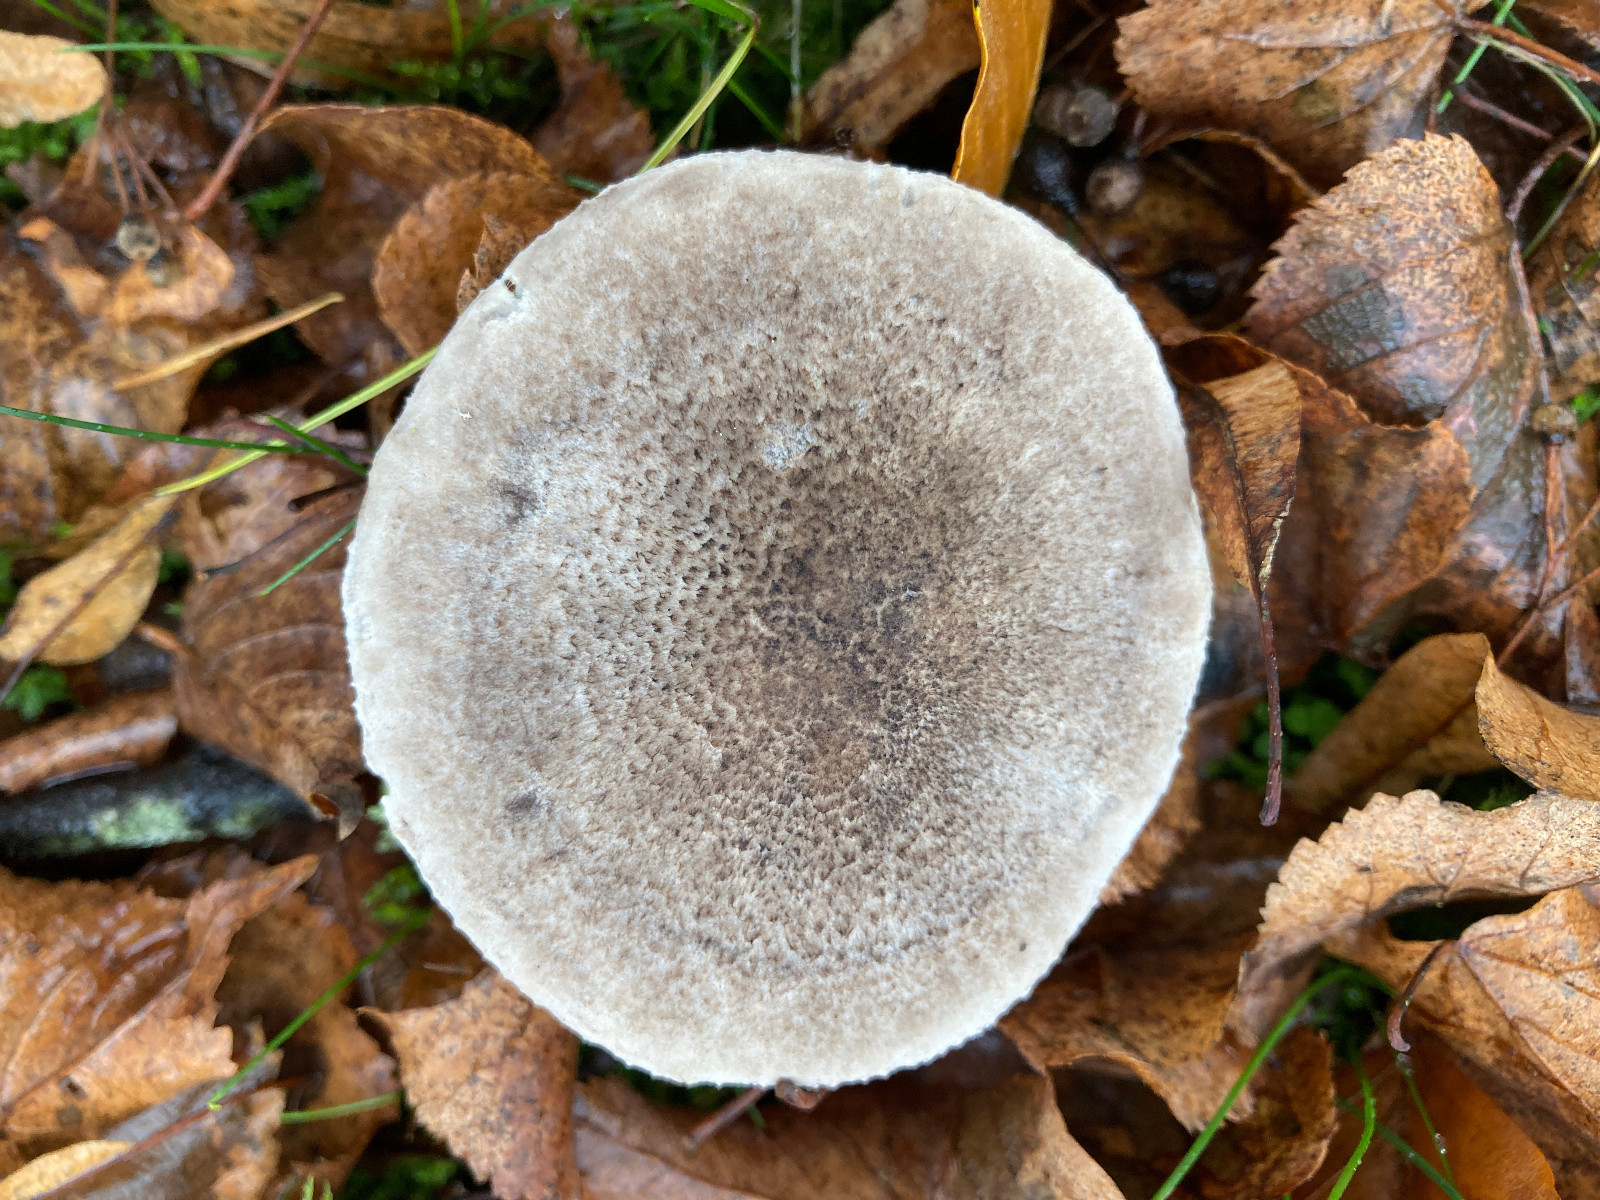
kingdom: Fungi
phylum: Basidiomycota
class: Agaricomycetes
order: Agaricales
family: Tricholomataceae
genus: Tricholoma
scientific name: Tricholoma scalpturatum
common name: gulplettet ridderhat
